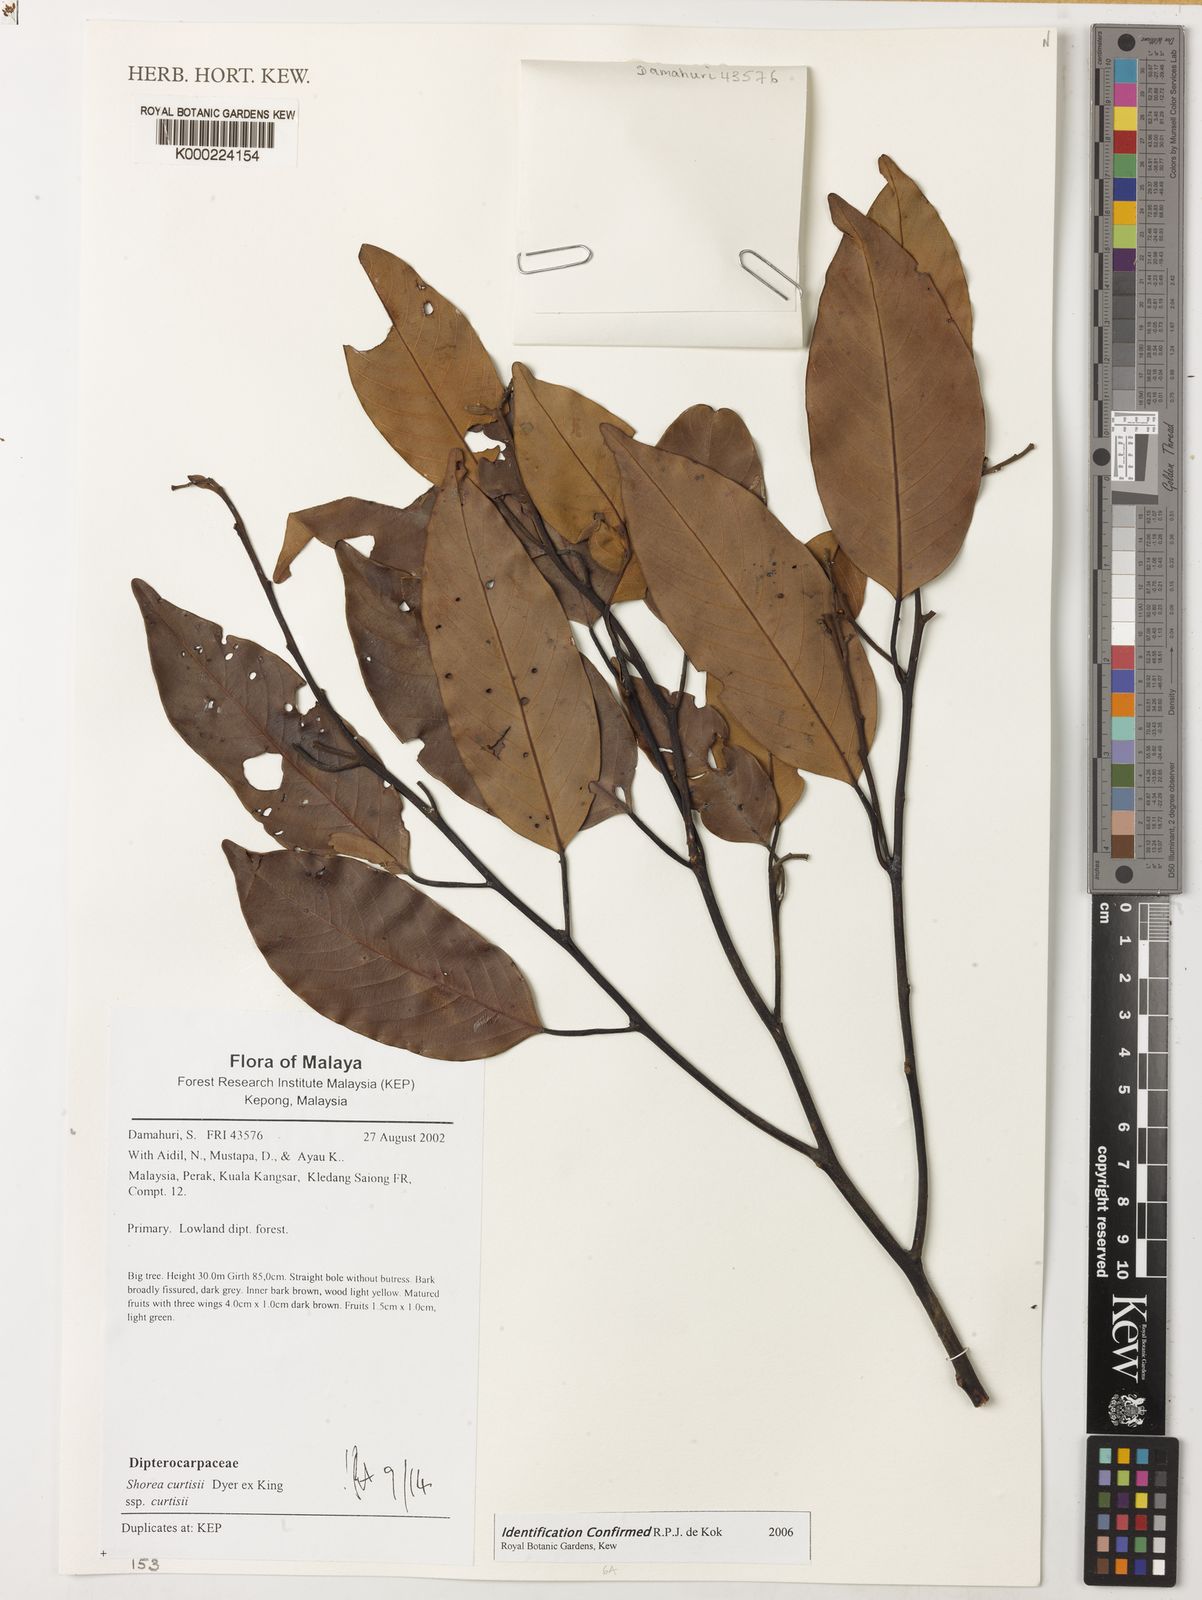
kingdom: Plantae
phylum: Tracheophyta
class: Magnoliopsida
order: Malvales
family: Dipterocarpaceae
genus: Dipterocarpus
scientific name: Dipterocarpus
